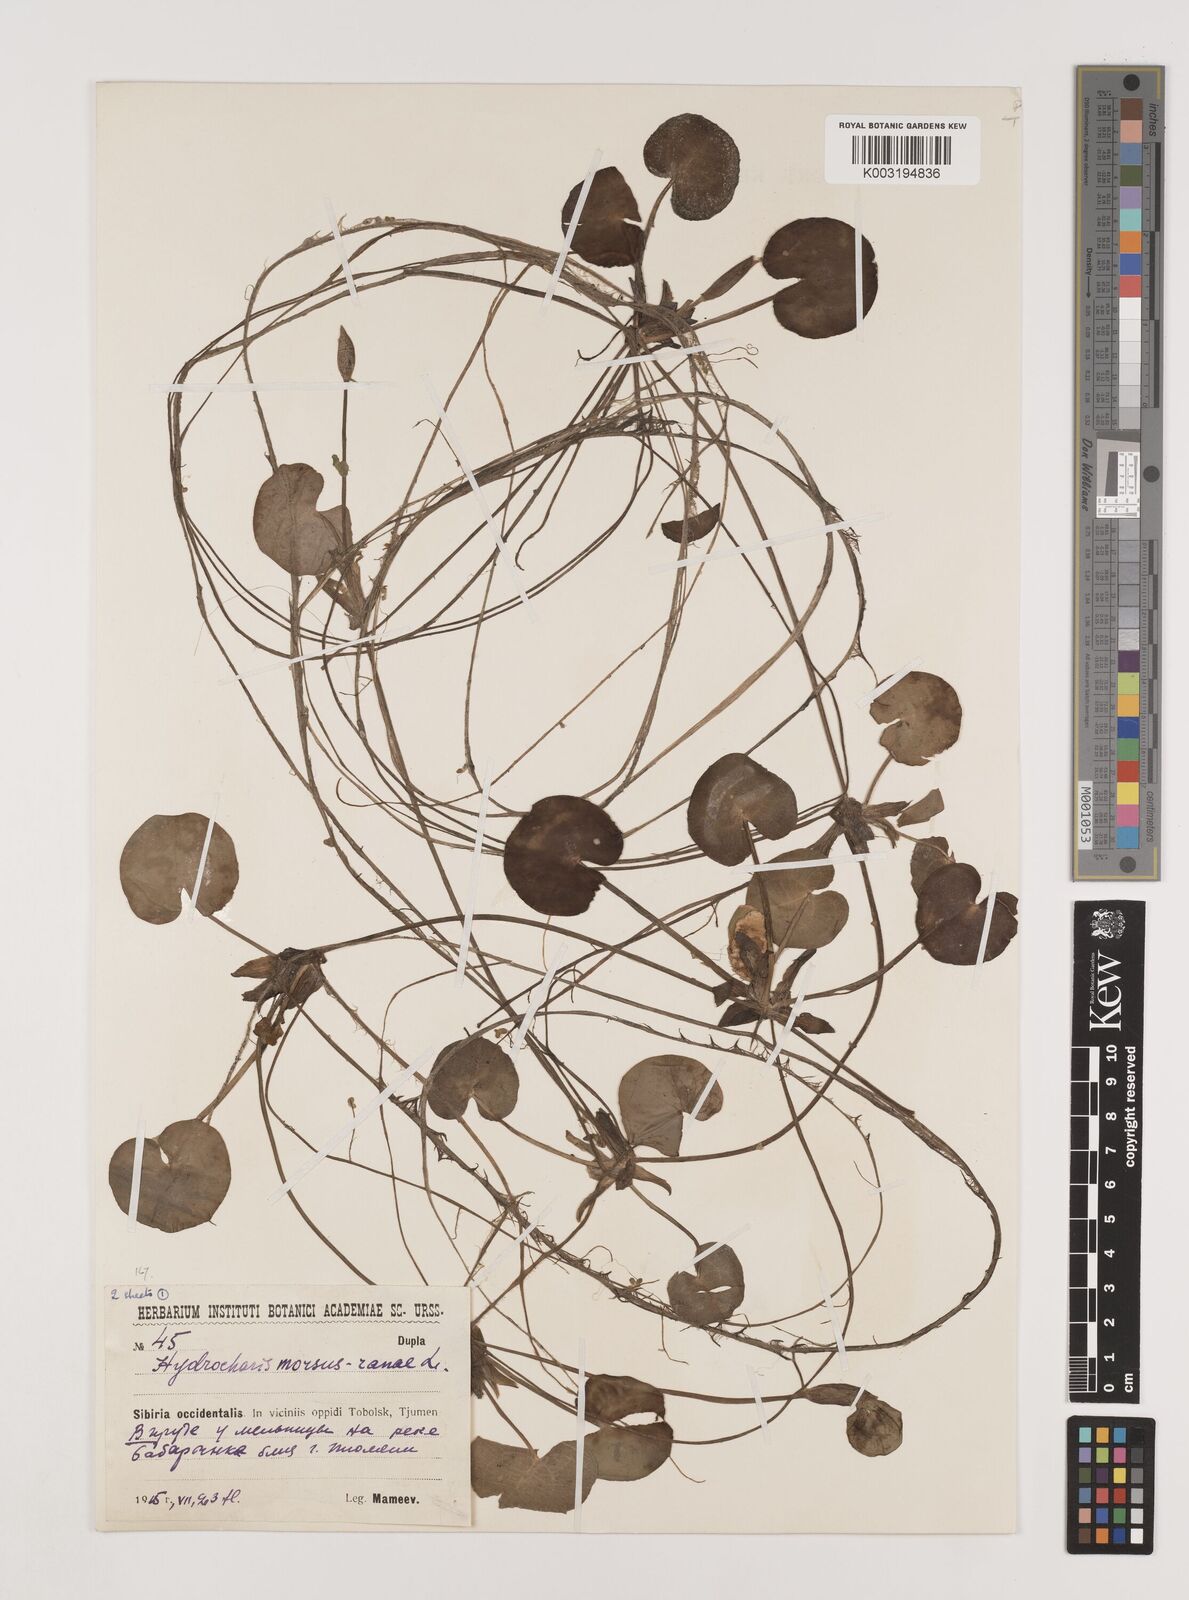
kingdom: Plantae
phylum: Tracheophyta
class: Liliopsida
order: Alismatales
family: Hydrocharitaceae
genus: Hydrocharis
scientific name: Hydrocharis morsus-ranae
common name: Frogbit
